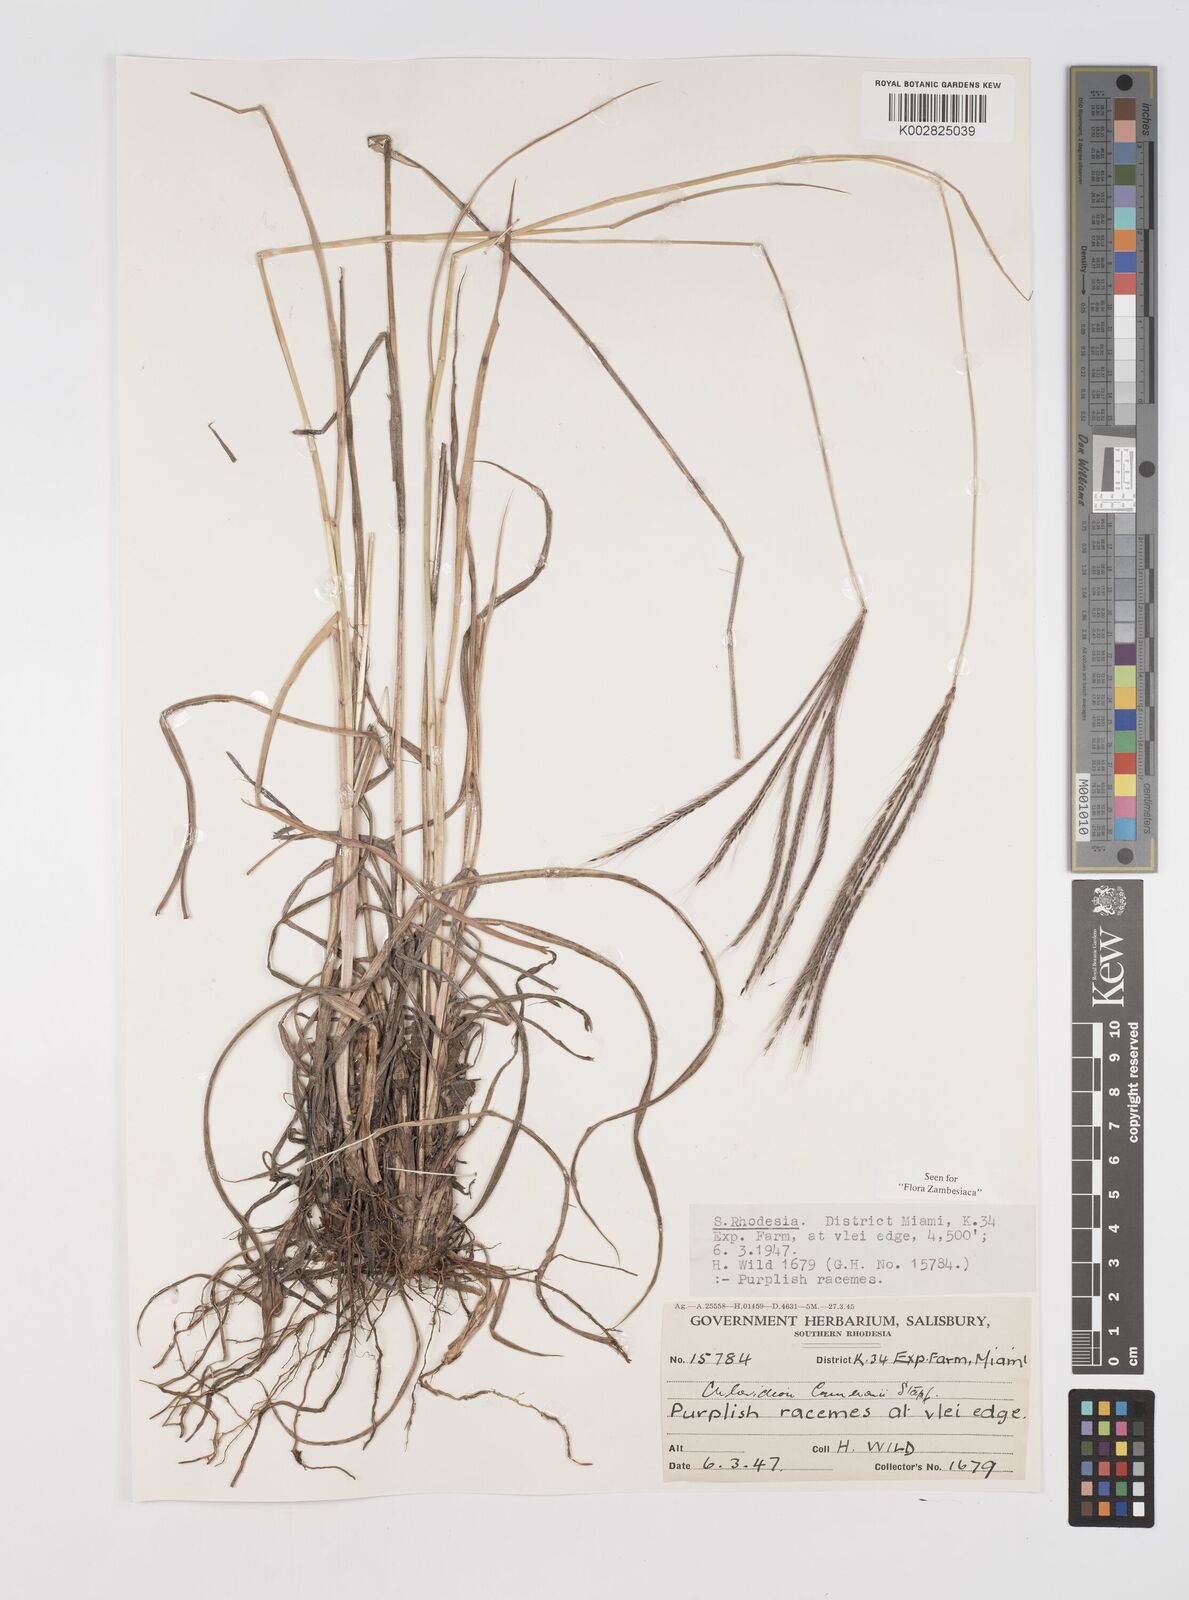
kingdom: Plantae
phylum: Tracheophyta
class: Liliopsida
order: Poales
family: Poaceae
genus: Stereochlaena
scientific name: Stereochlaena cameronii
